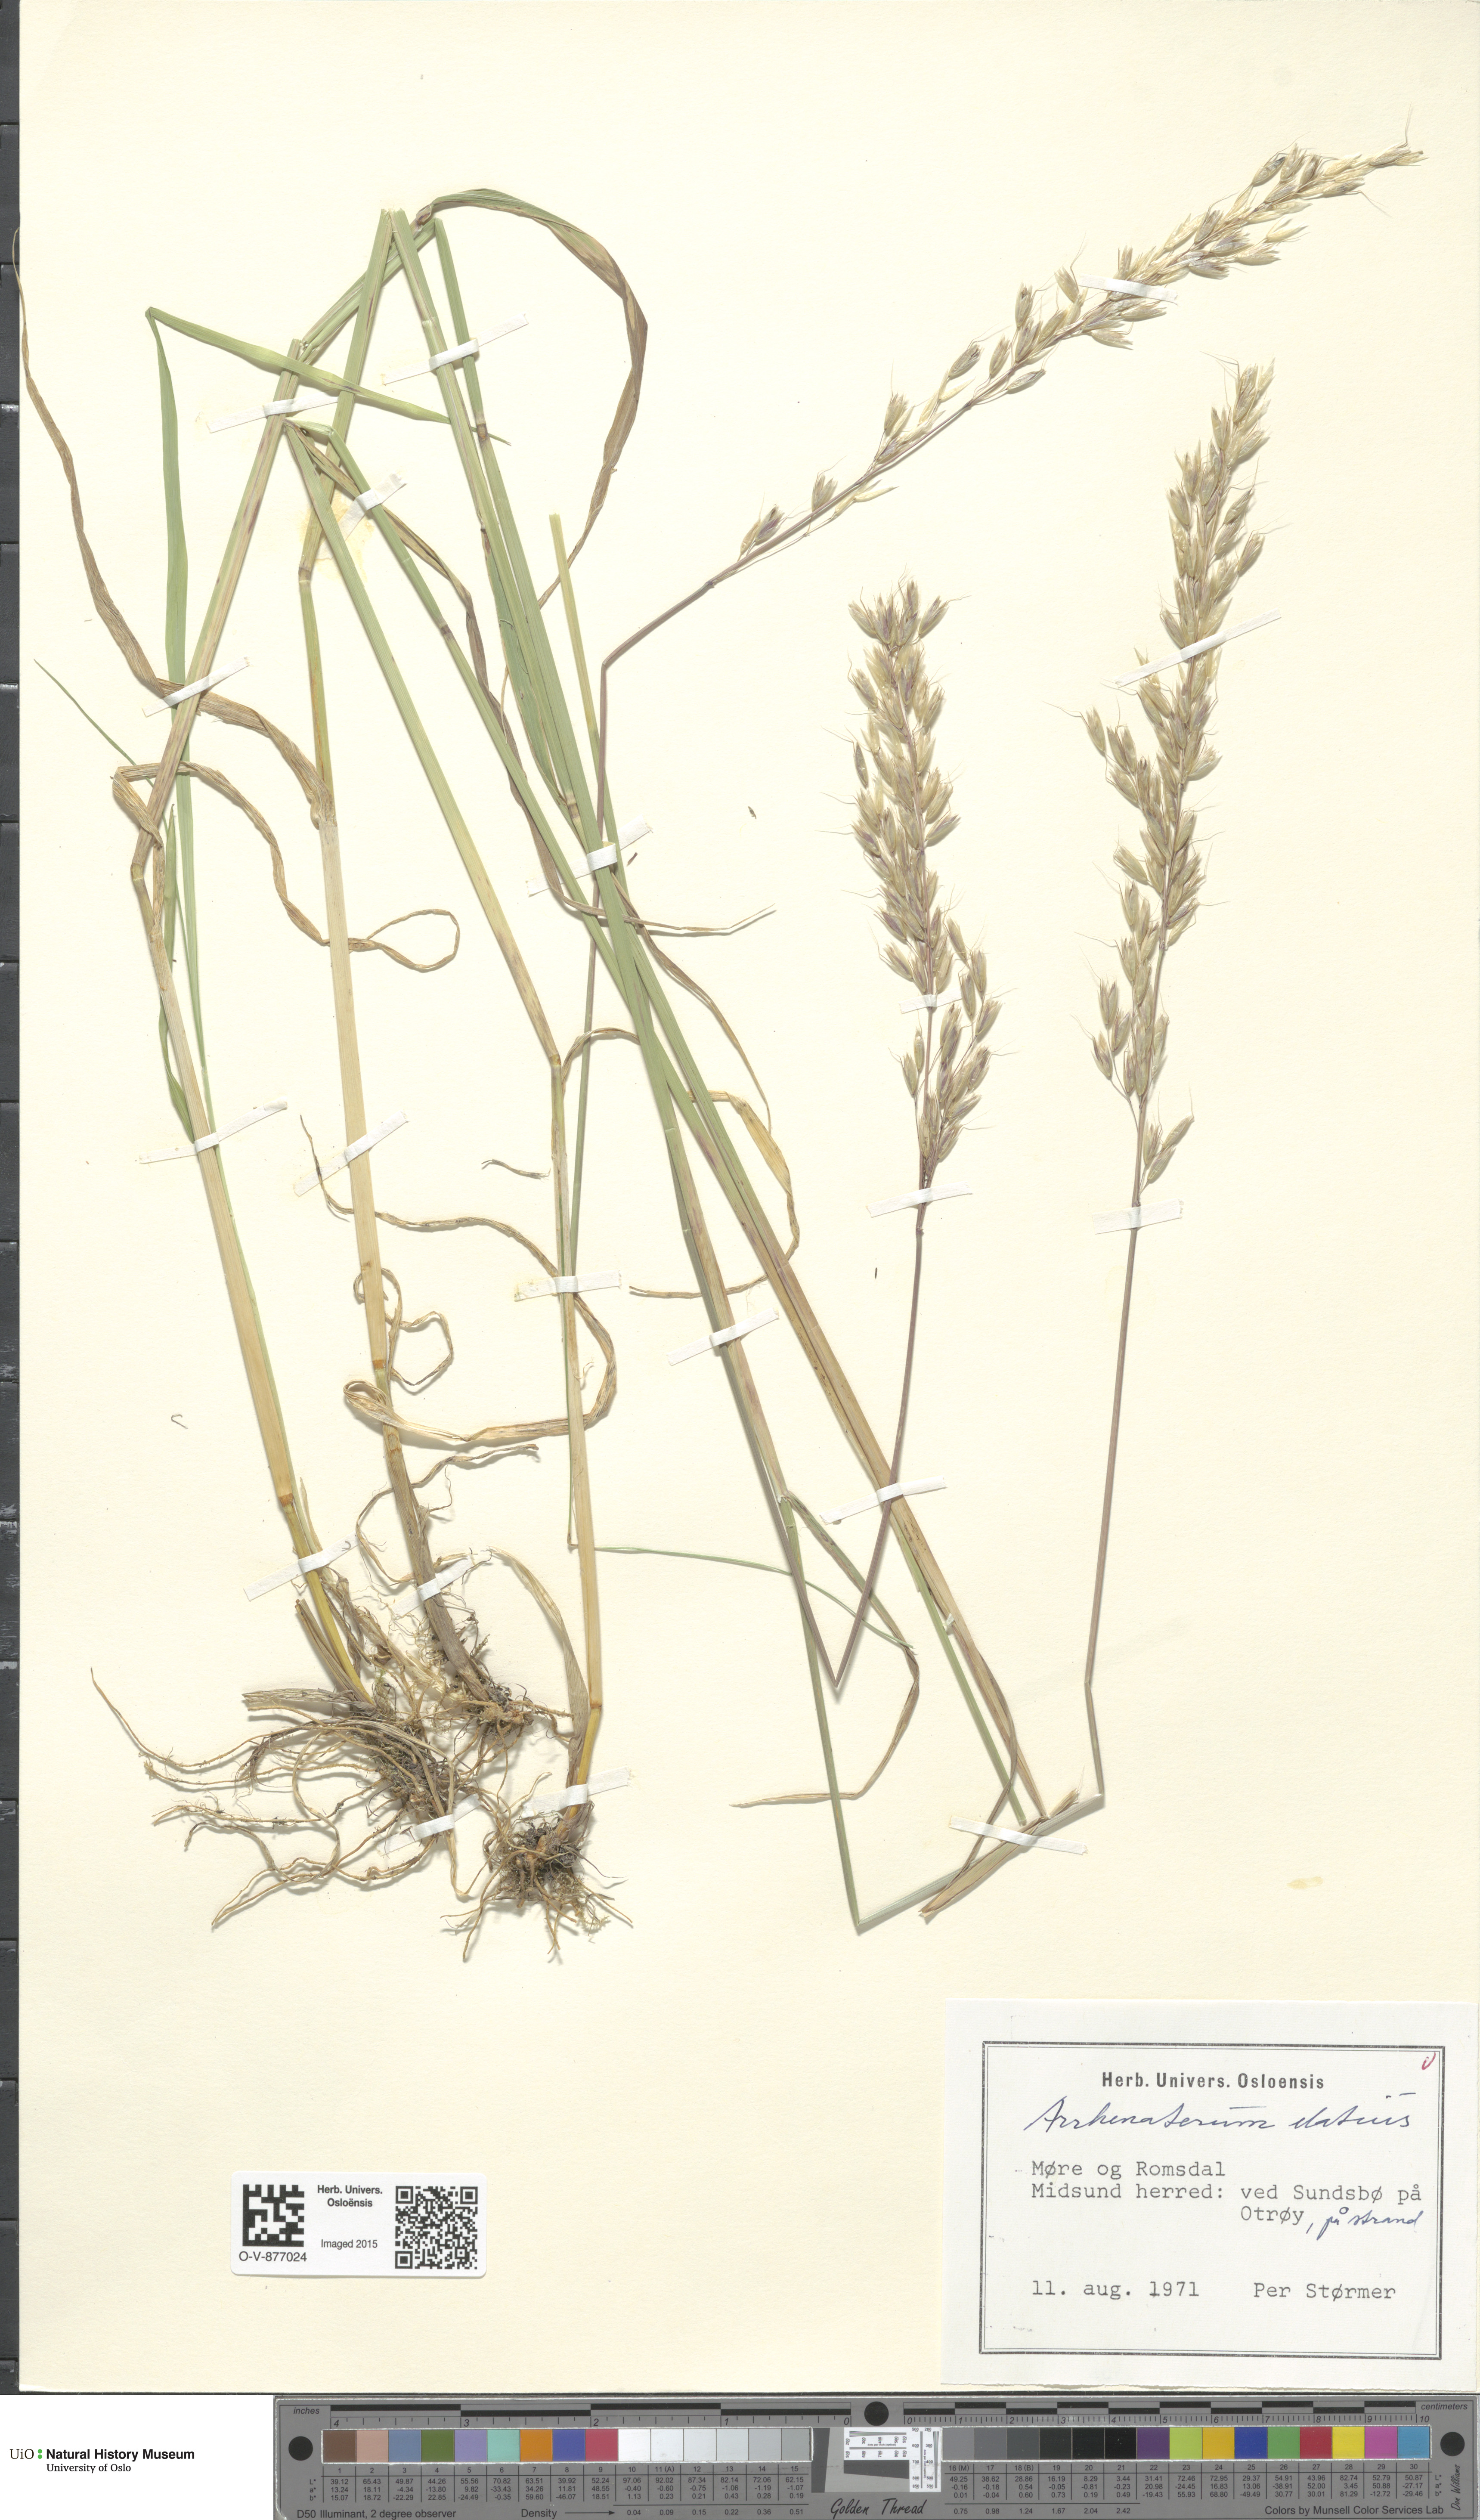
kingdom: Plantae
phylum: Tracheophyta
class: Liliopsida
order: Poales
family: Poaceae
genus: Arrhenatherum
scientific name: Arrhenatherum elatius
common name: Tall oatgrass
